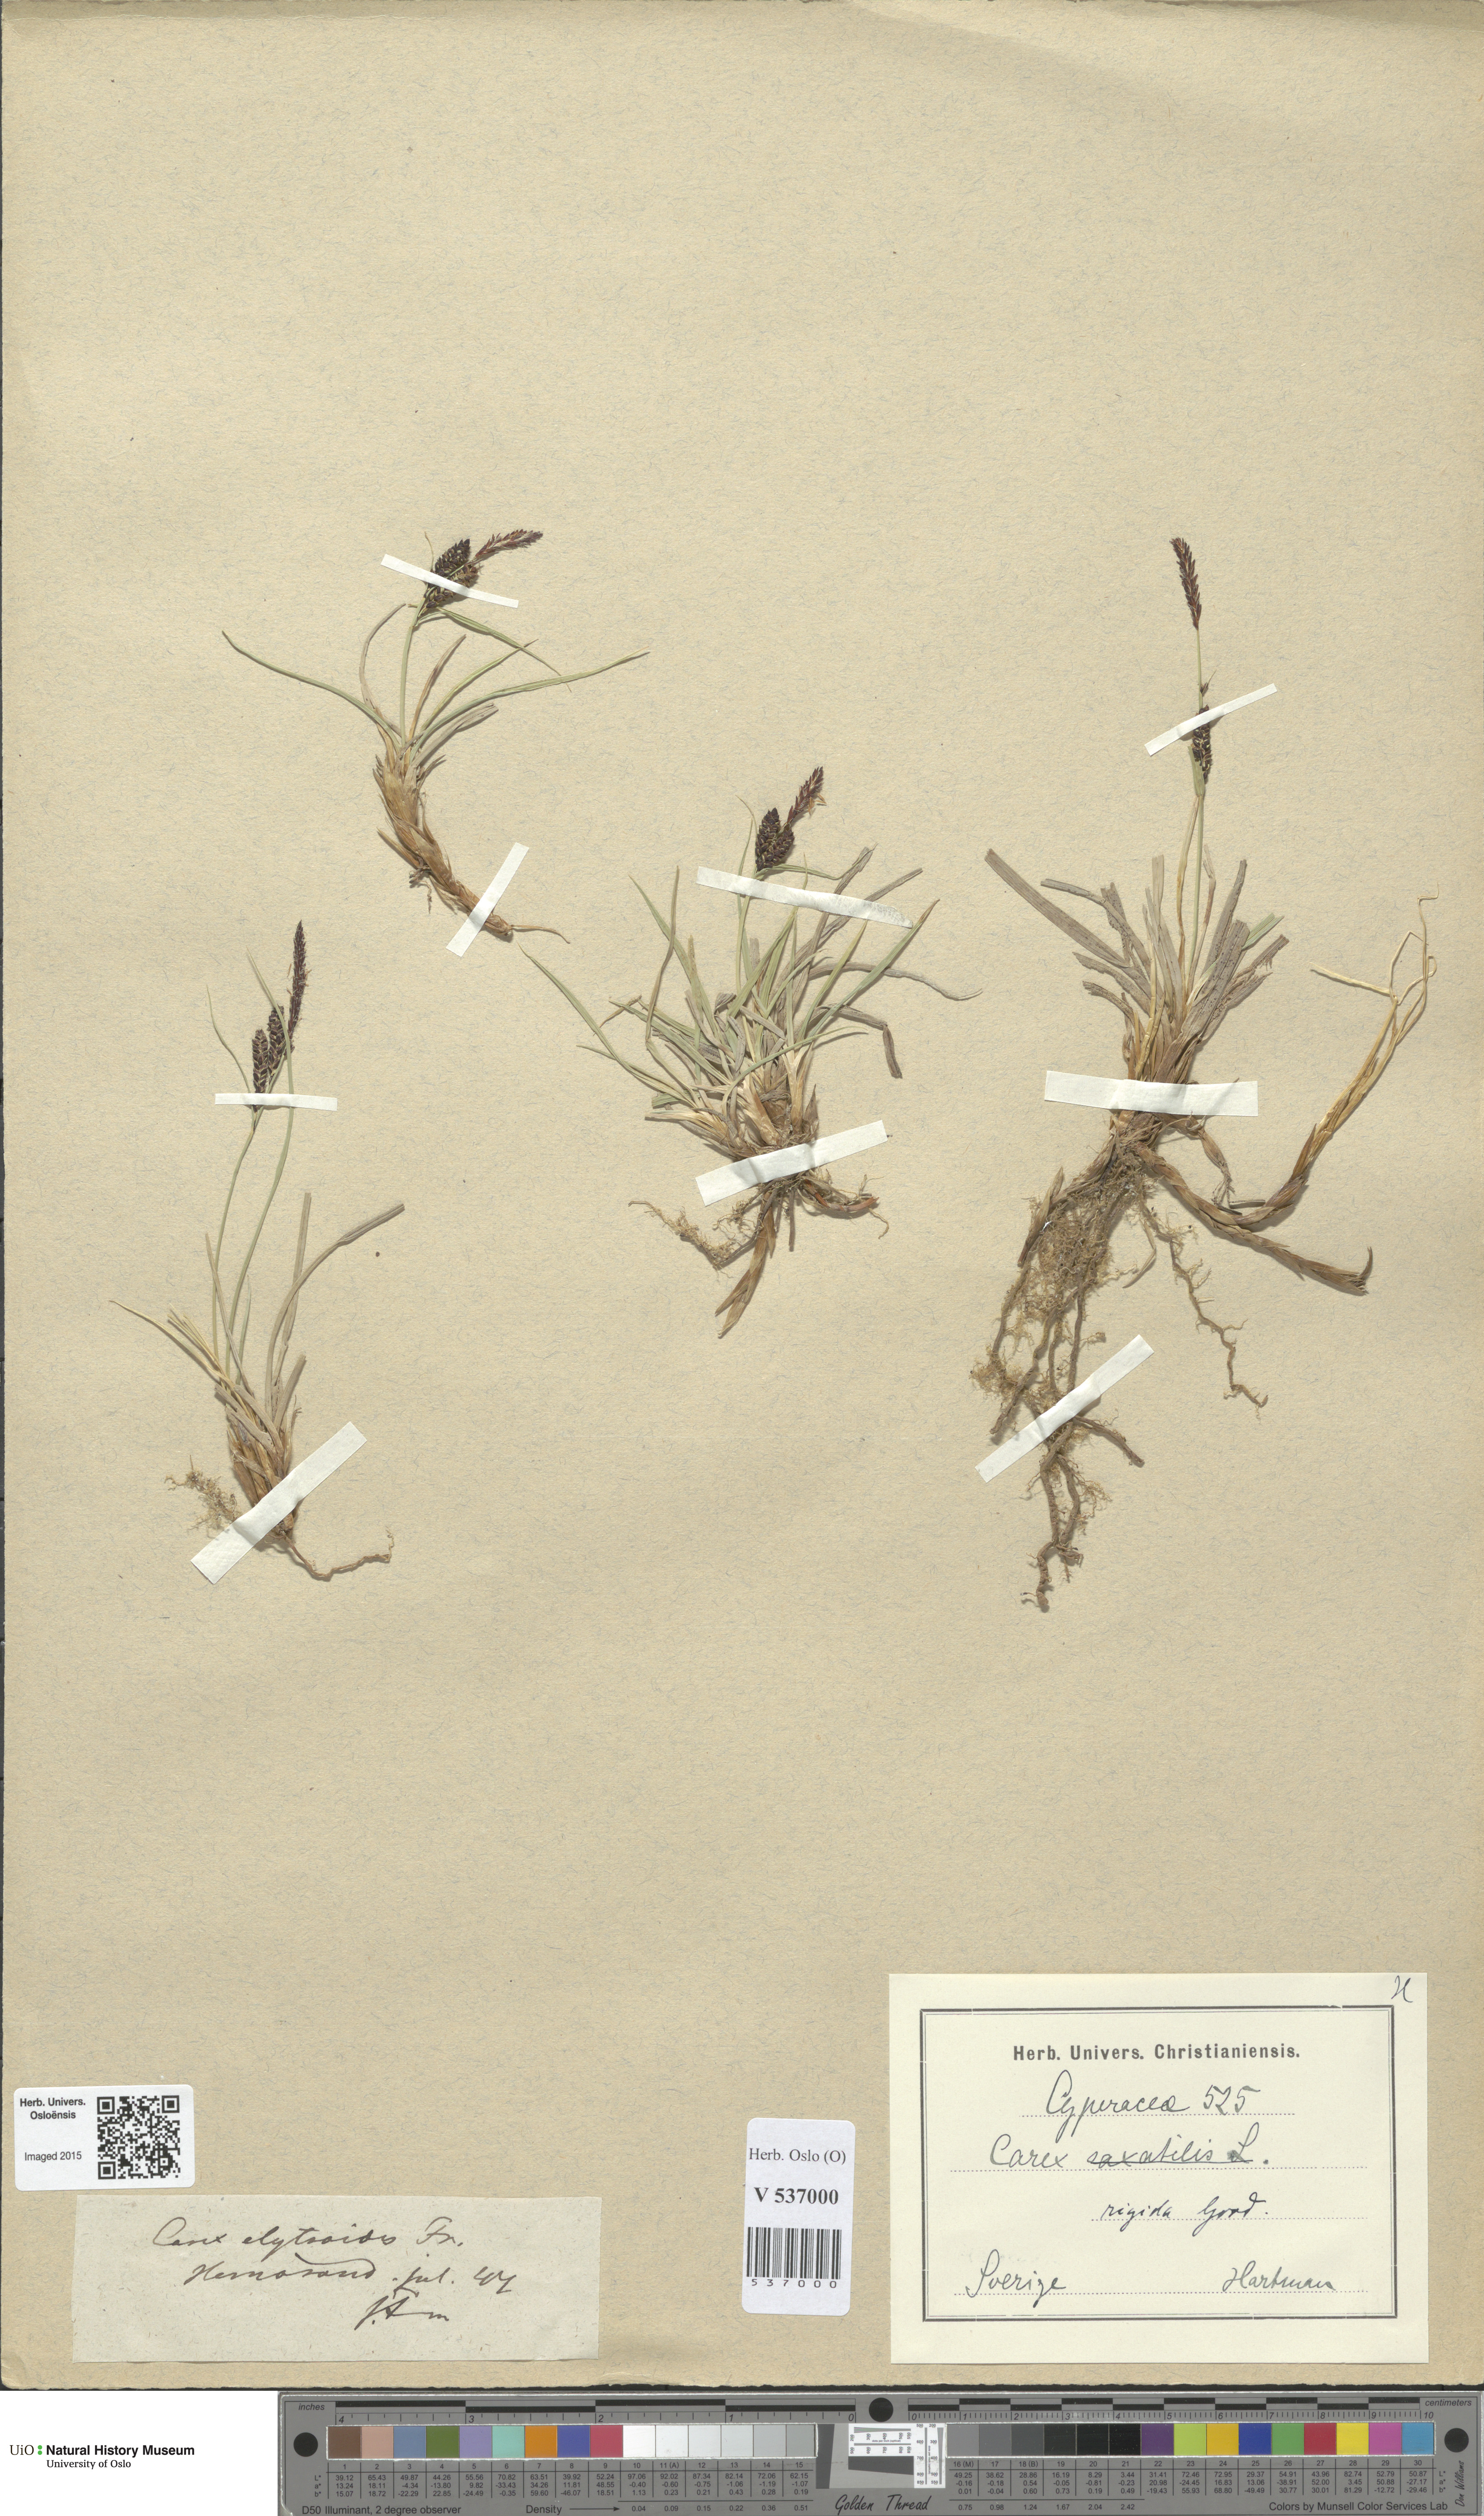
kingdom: Plantae
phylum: Tracheophyta
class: Liliopsida
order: Poales
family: Cyperaceae
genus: Carex
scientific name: Carex dacica
